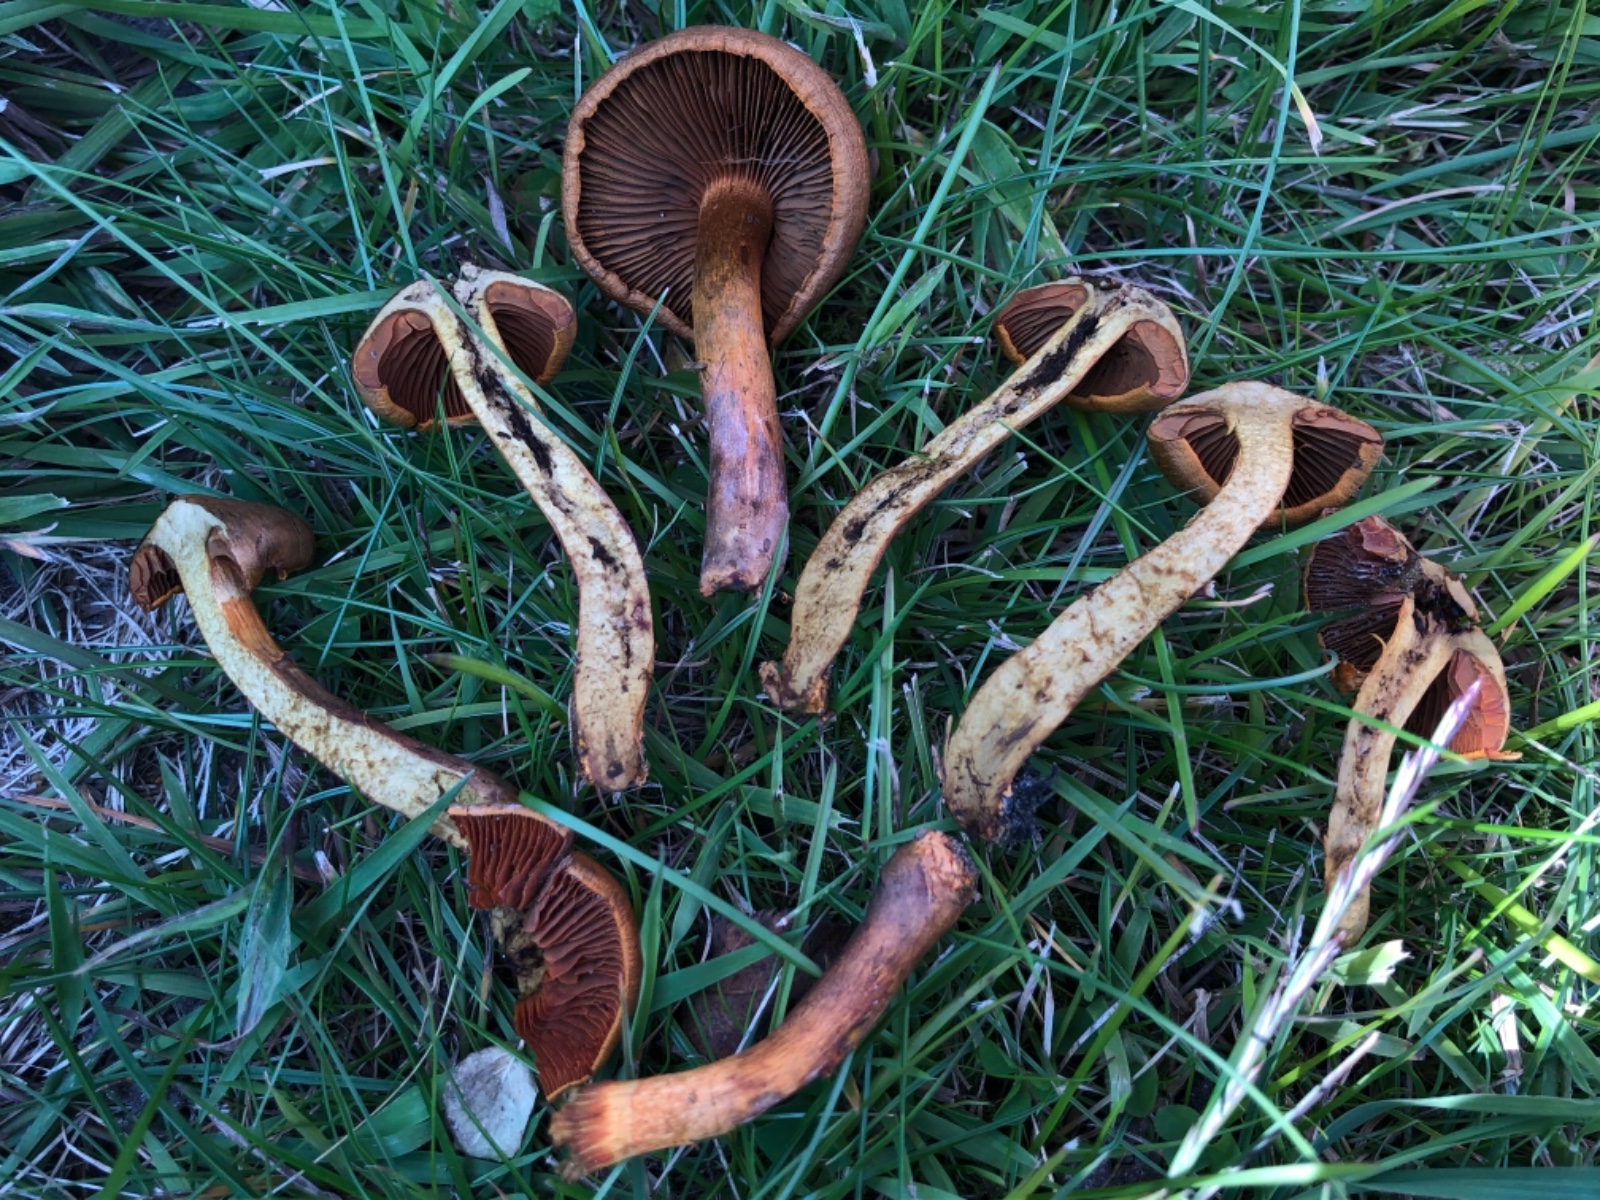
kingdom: Fungi
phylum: Basidiomycota
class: Agaricomycetes
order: Agaricales
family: Cortinariaceae
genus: Cortinarius
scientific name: Cortinarius
